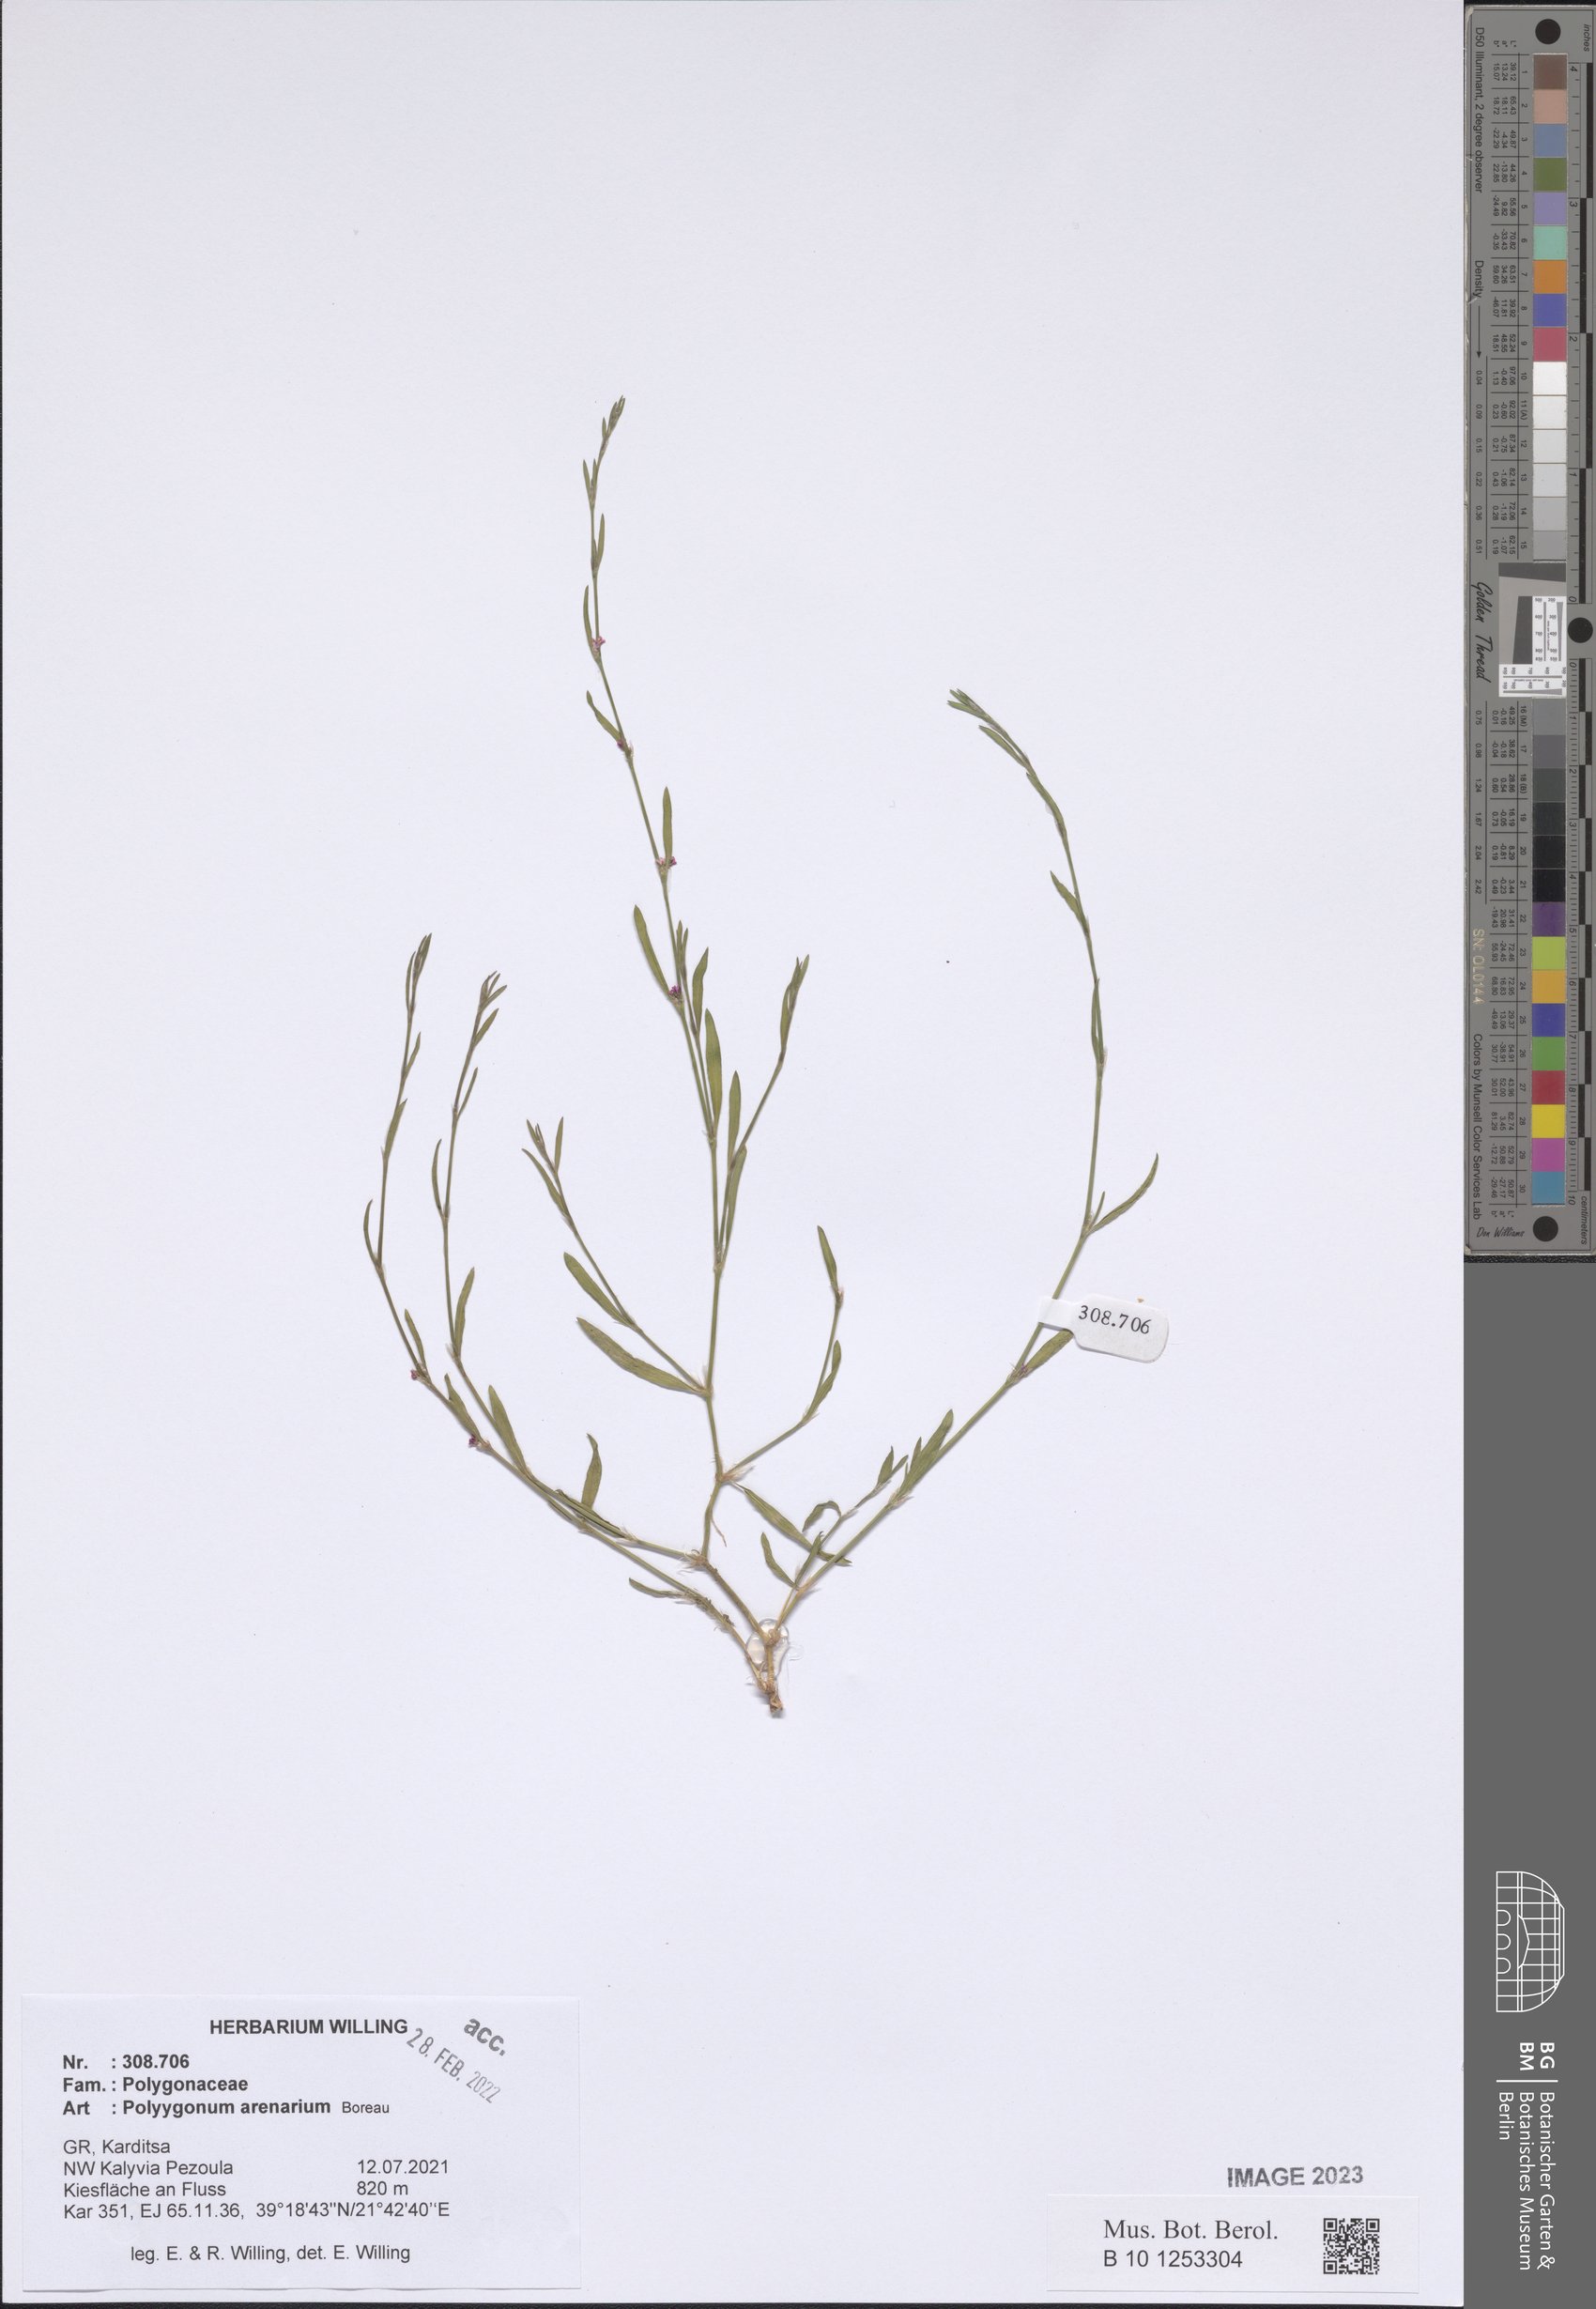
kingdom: Plantae
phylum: Tracheophyta
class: Magnoliopsida
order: Caryophyllales
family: Polygonaceae
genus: Polygonum
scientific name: Polygonum arenarium
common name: Lesser red-knotgrass
